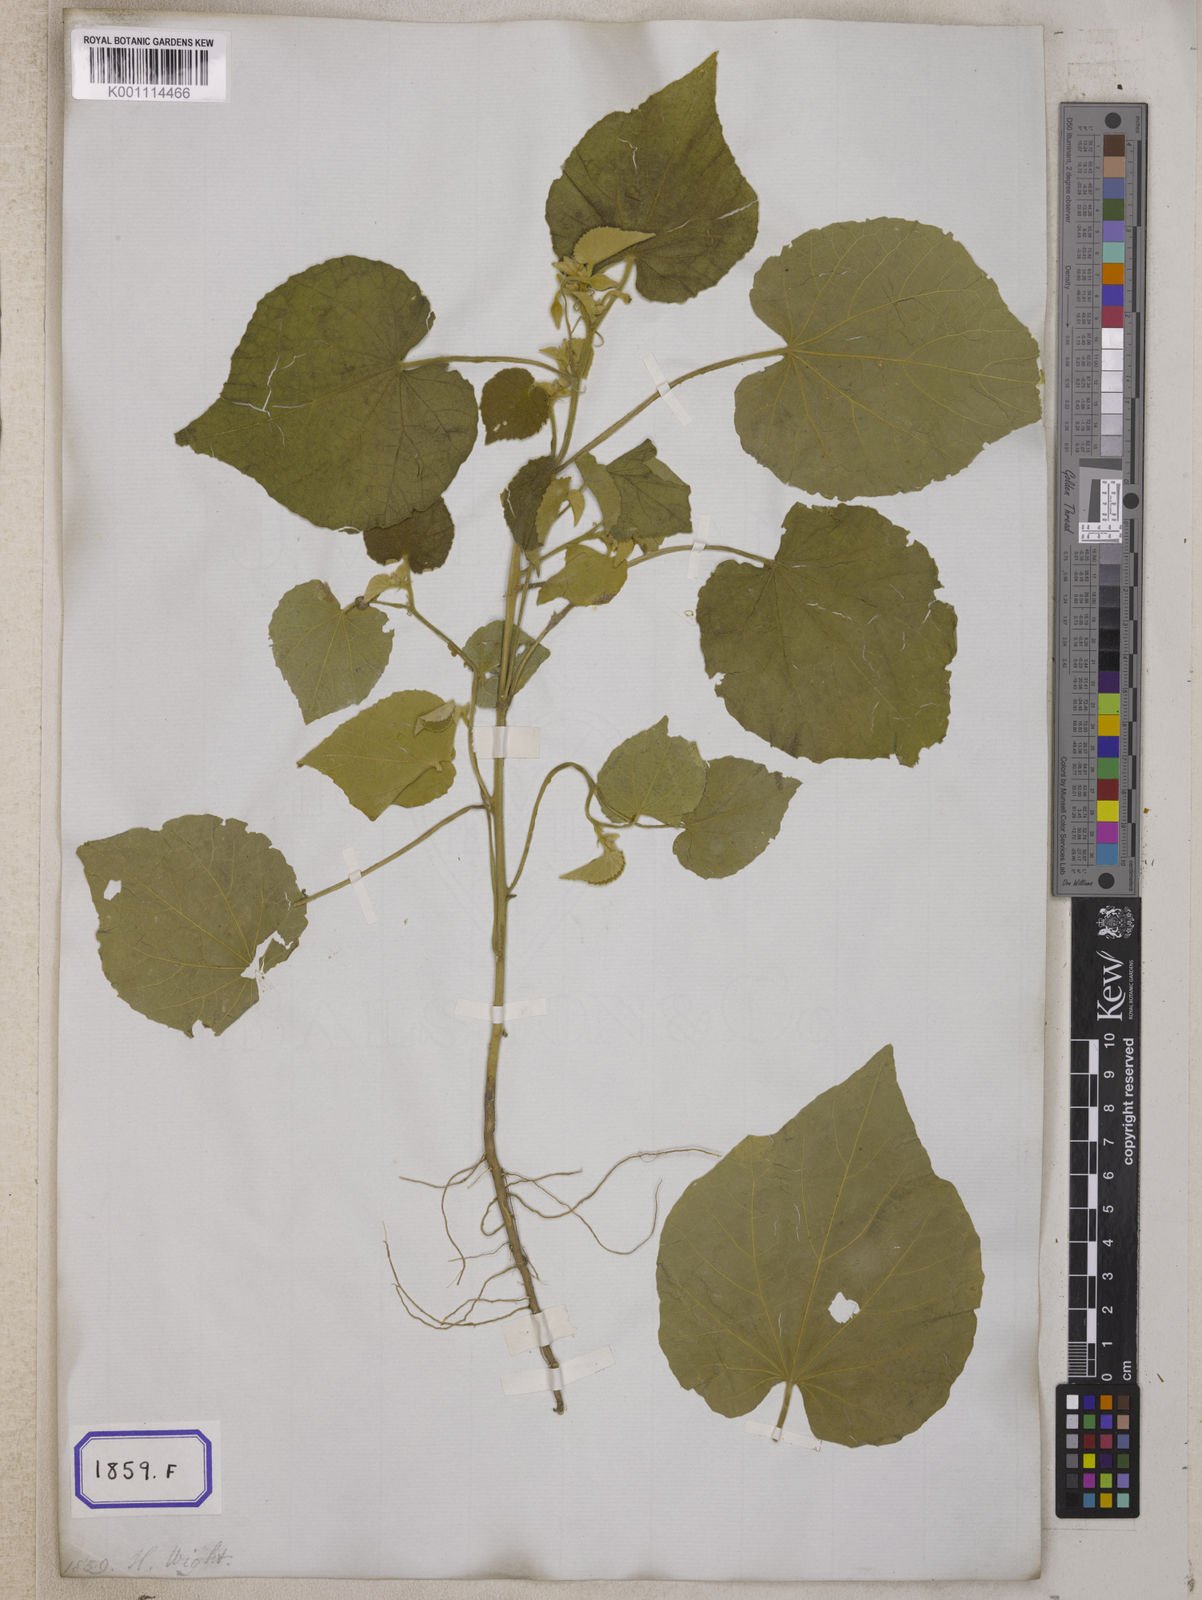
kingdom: Plantae
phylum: Tracheophyta
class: Magnoliopsida
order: Malvales
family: Malvaceae
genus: Abutilon
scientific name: Abutilon indicum
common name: Indian abutilon
